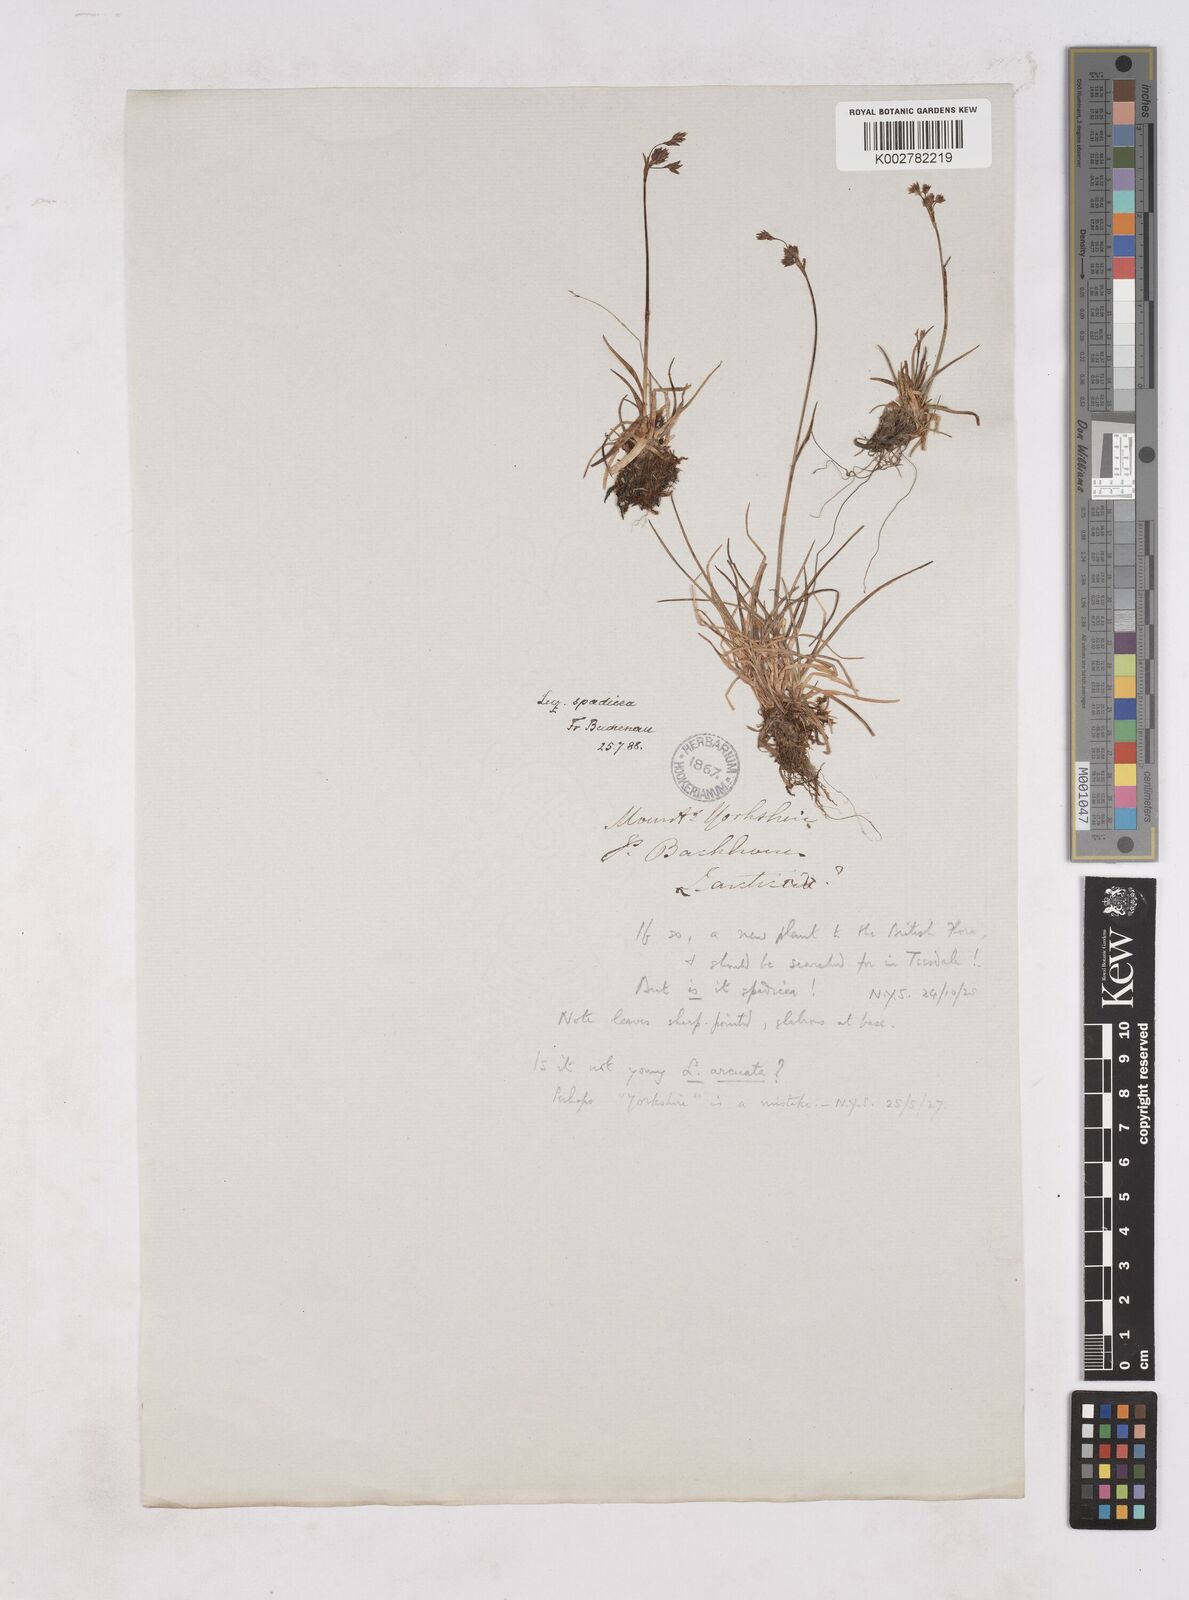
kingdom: Plantae
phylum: Tracheophyta
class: Liliopsida
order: Poales
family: Juncaceae
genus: Luzula
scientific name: Luzula alpinopilosa
